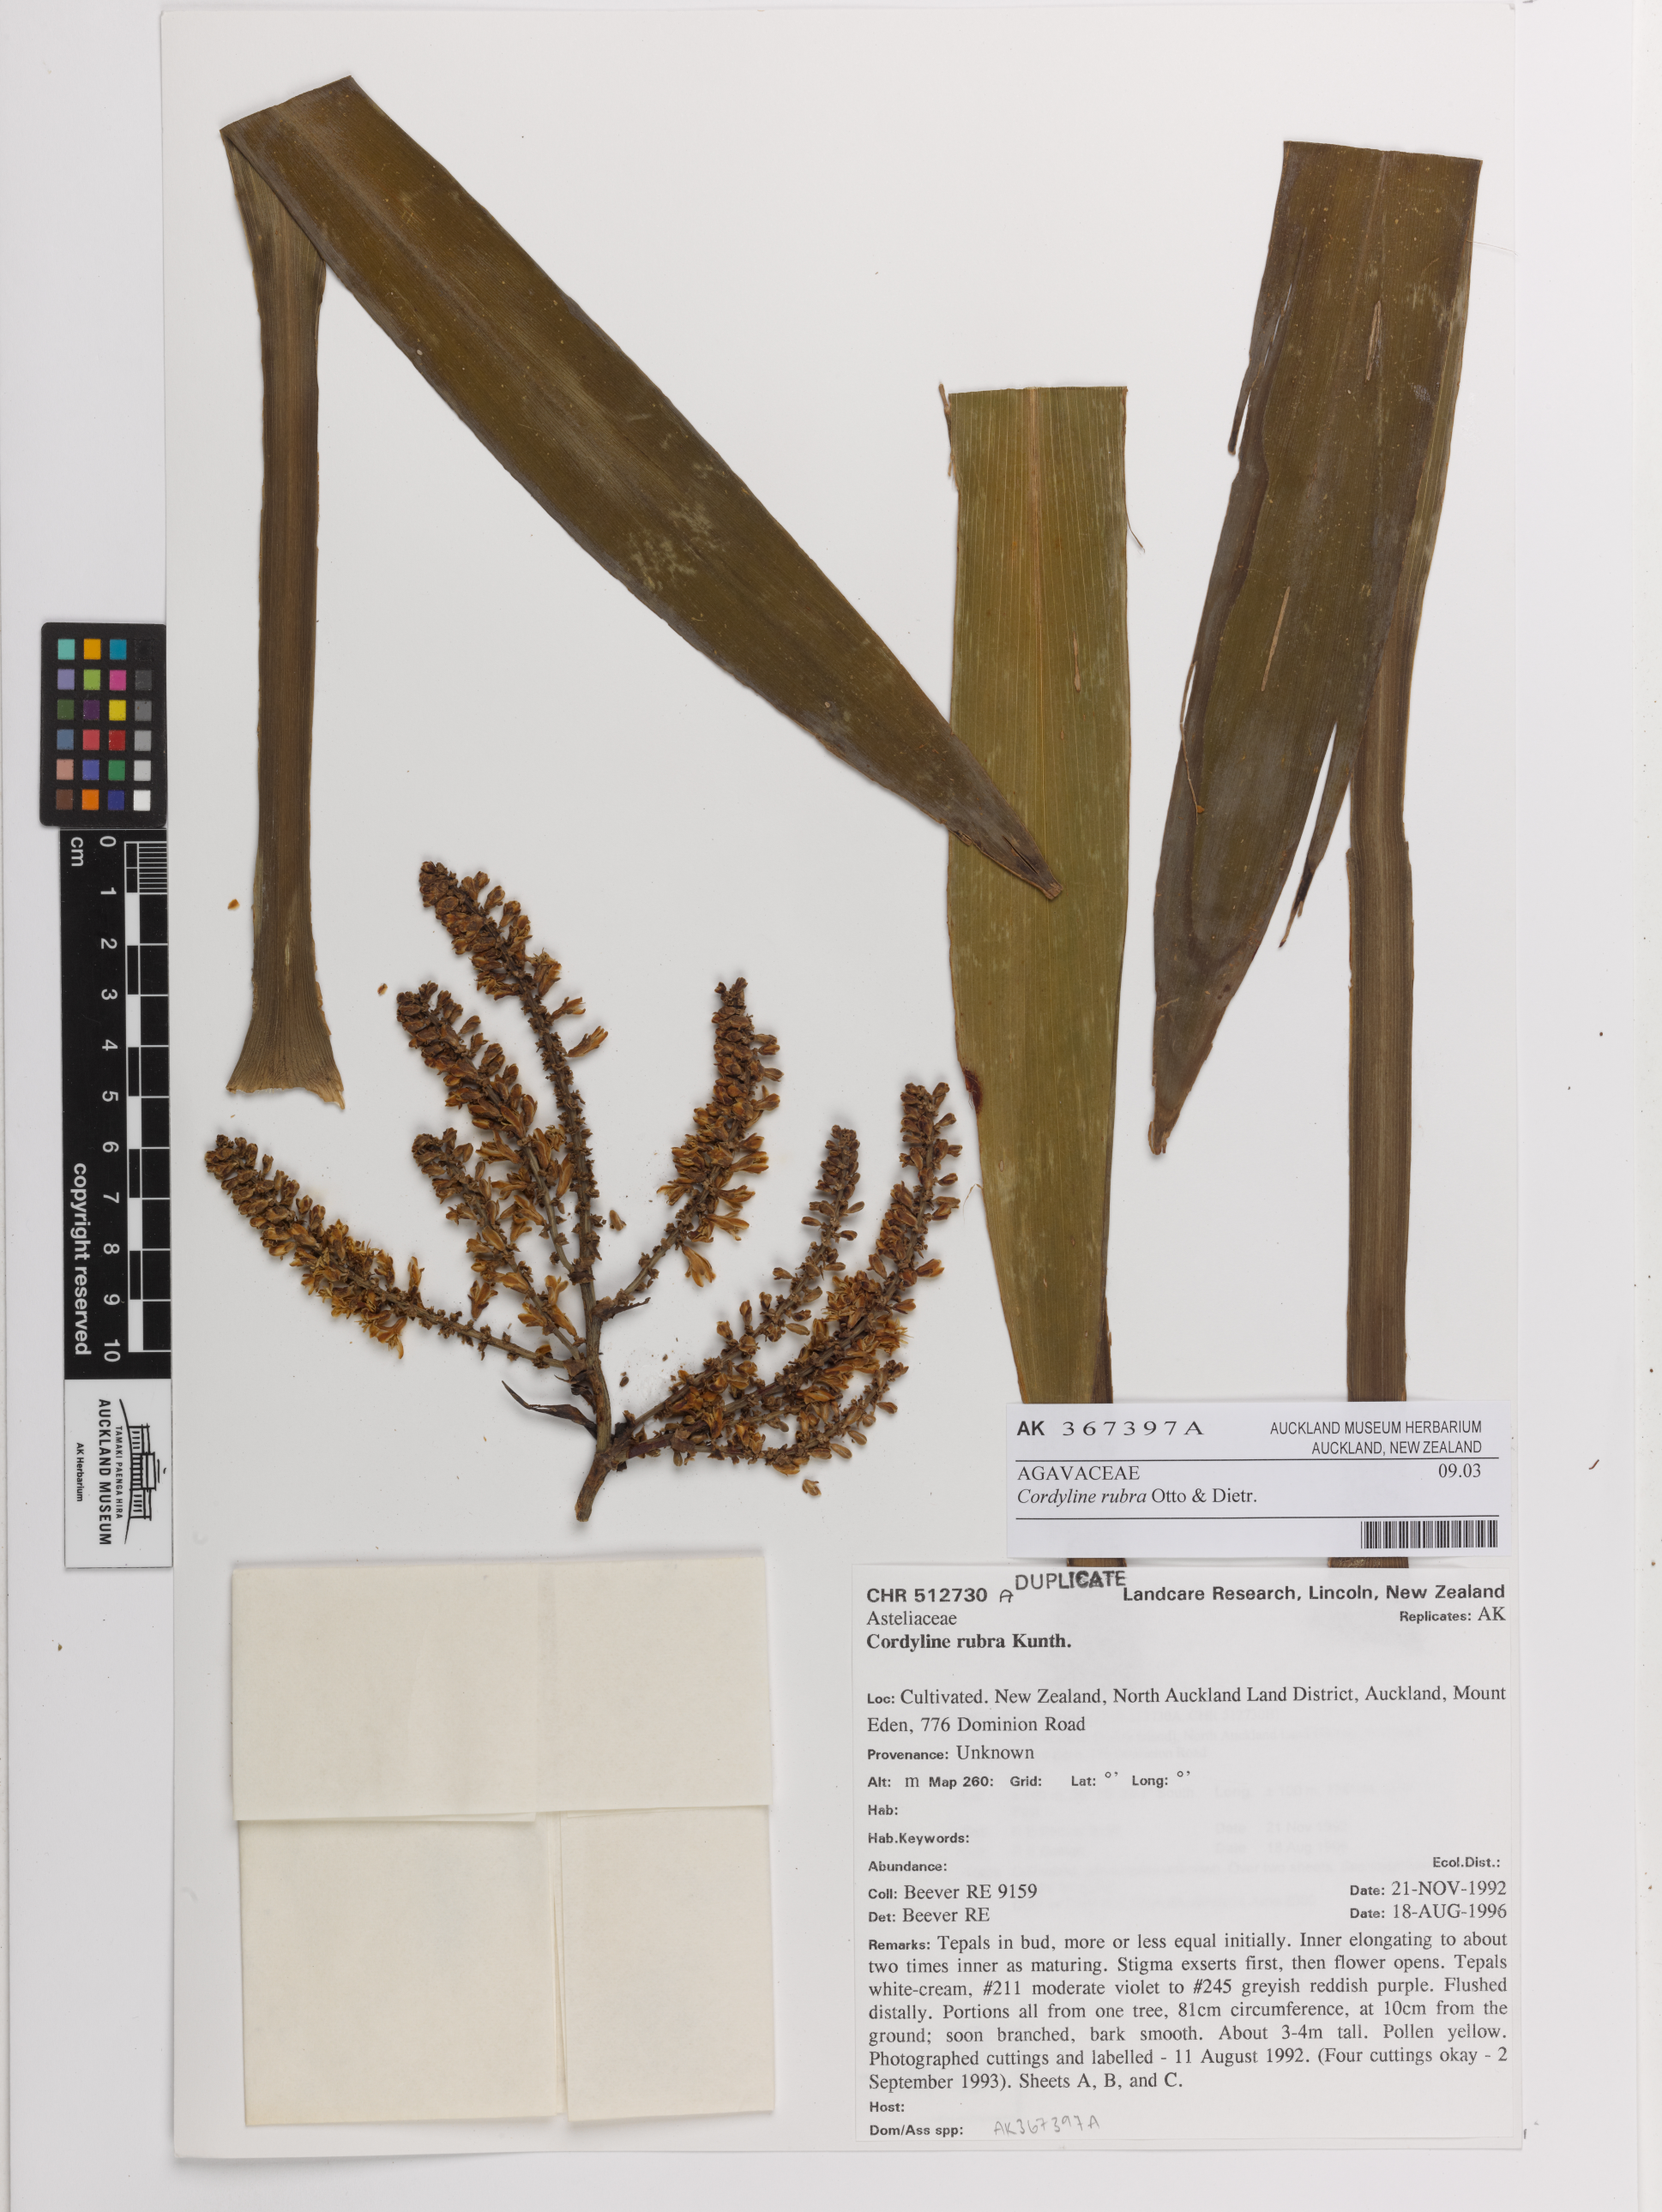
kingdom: Plantae
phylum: Tracheophyta
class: Liliopsida
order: Asparagales
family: Asparagaceae
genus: Cordyline
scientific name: Cordyline rubra
